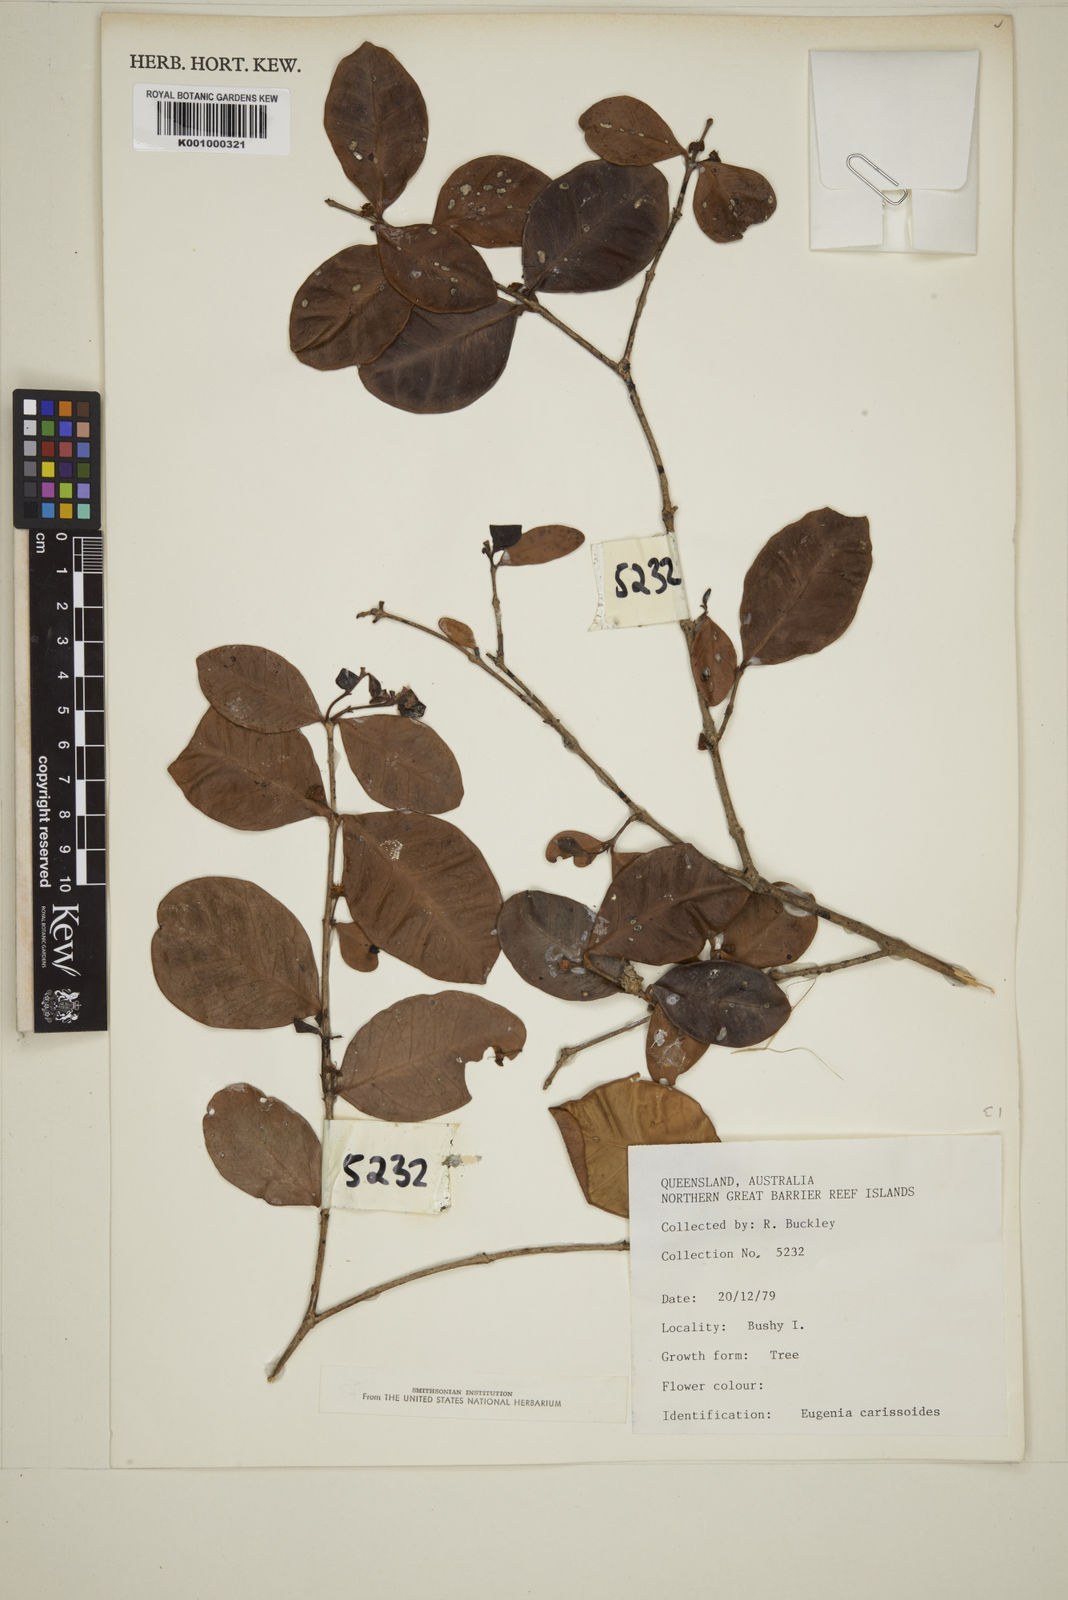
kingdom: Plantae
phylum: Tracheophyta
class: Magnoliopsida
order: Myrtales
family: Myrtaceae
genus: Eugenia
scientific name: Eugenia reinwardtiana
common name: Cedar bay-cherry
